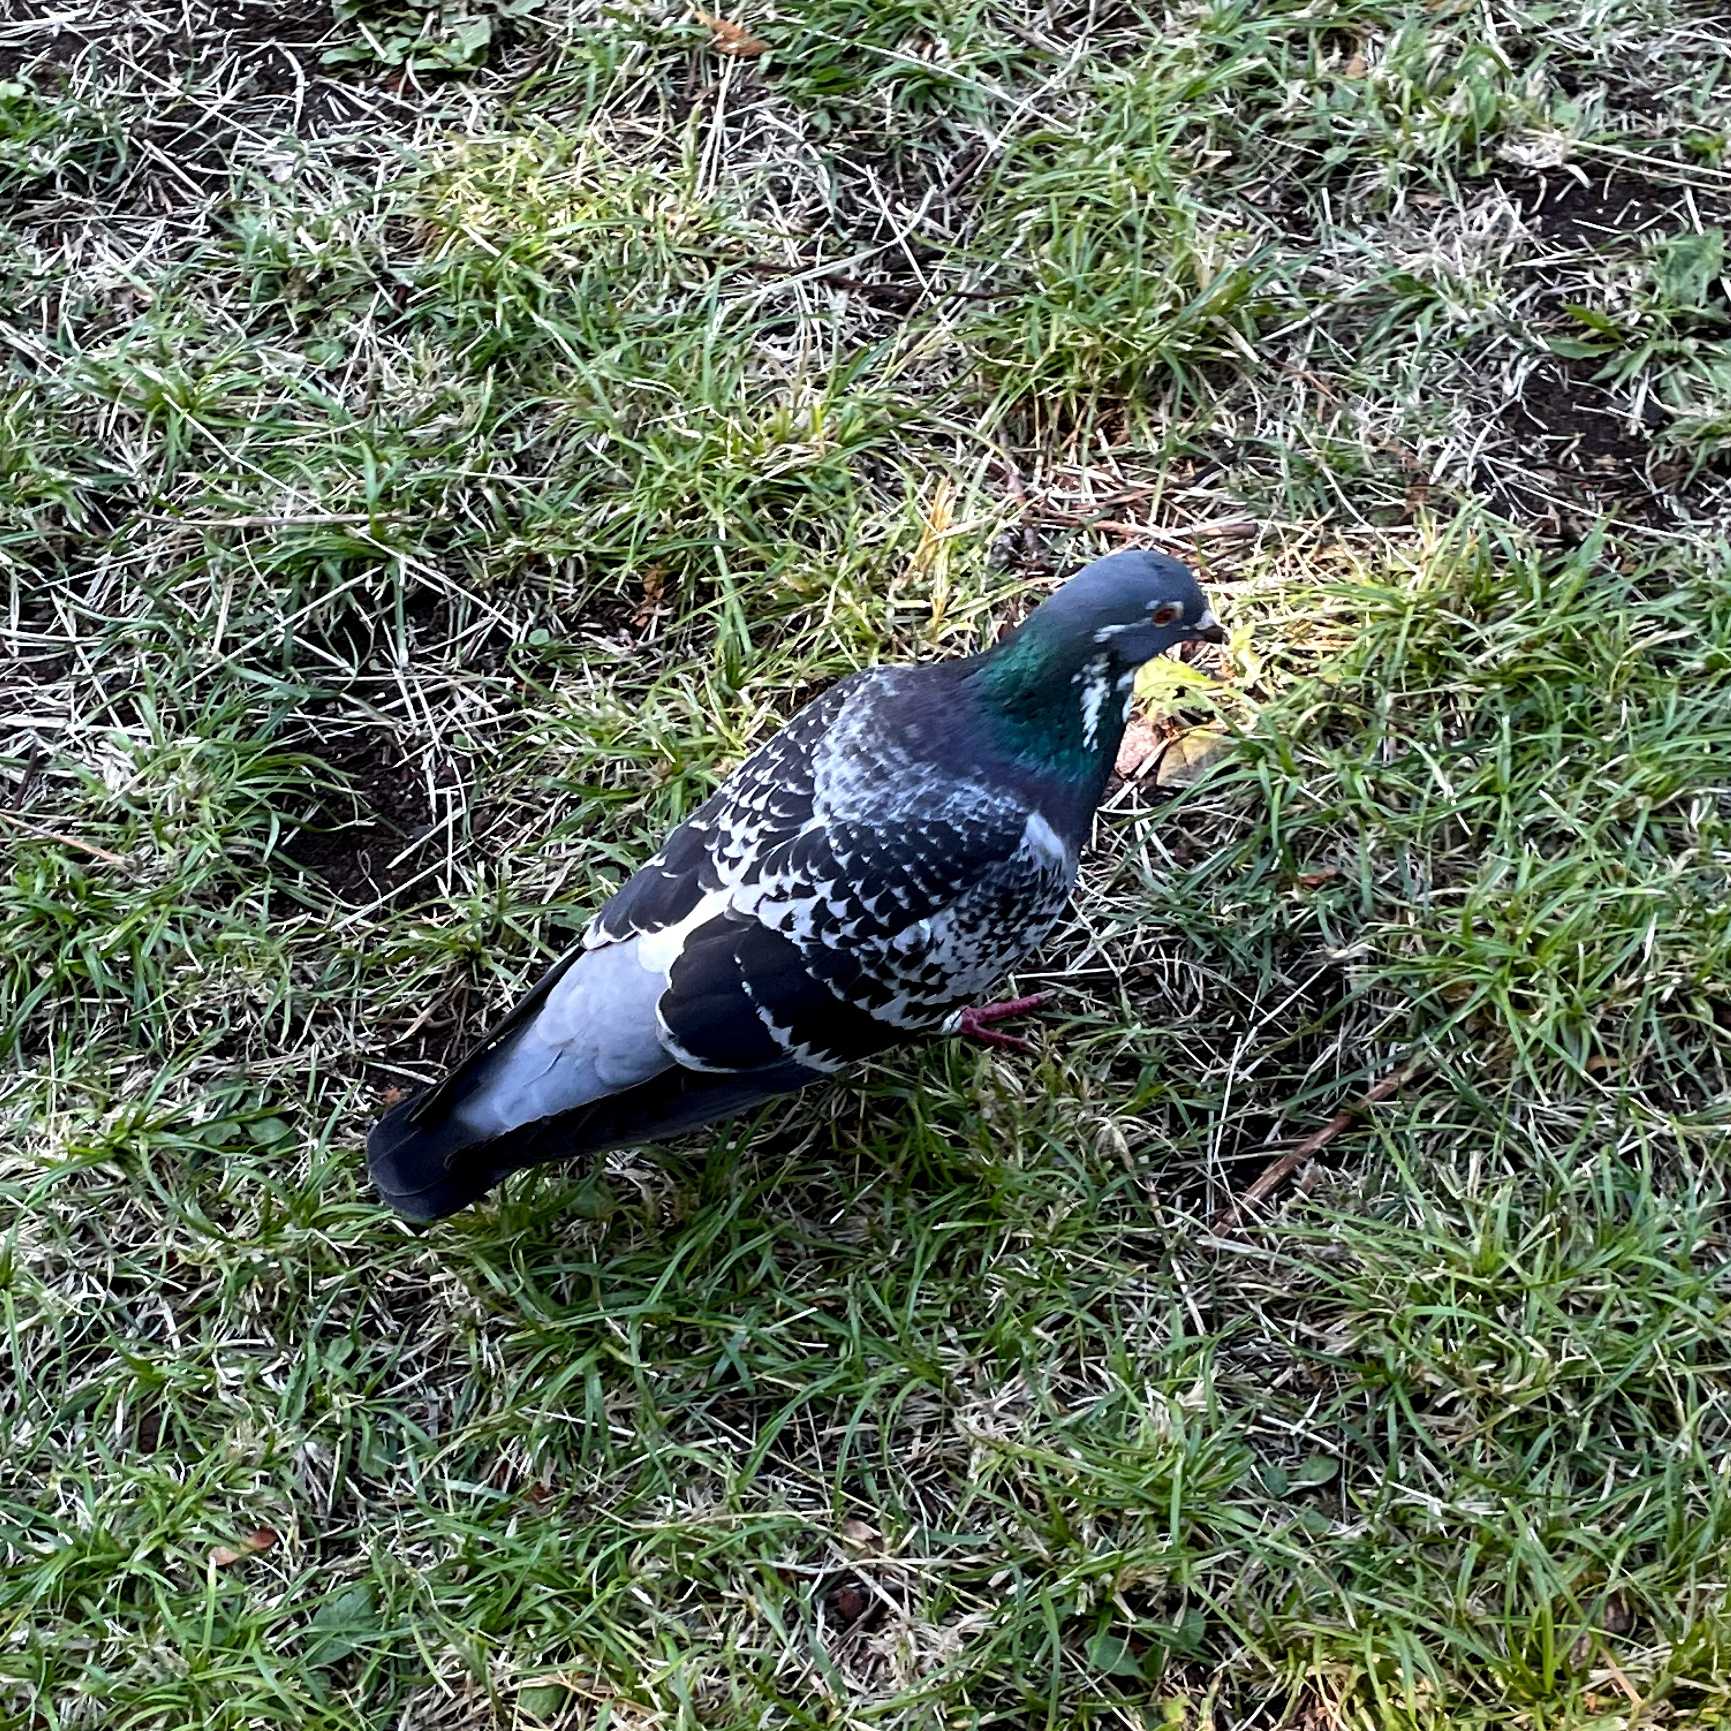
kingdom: Animalia
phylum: Chordata
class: Aves
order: Columbiformes
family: Columbidae
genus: Columba
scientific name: Columba livia
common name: Klippedue
